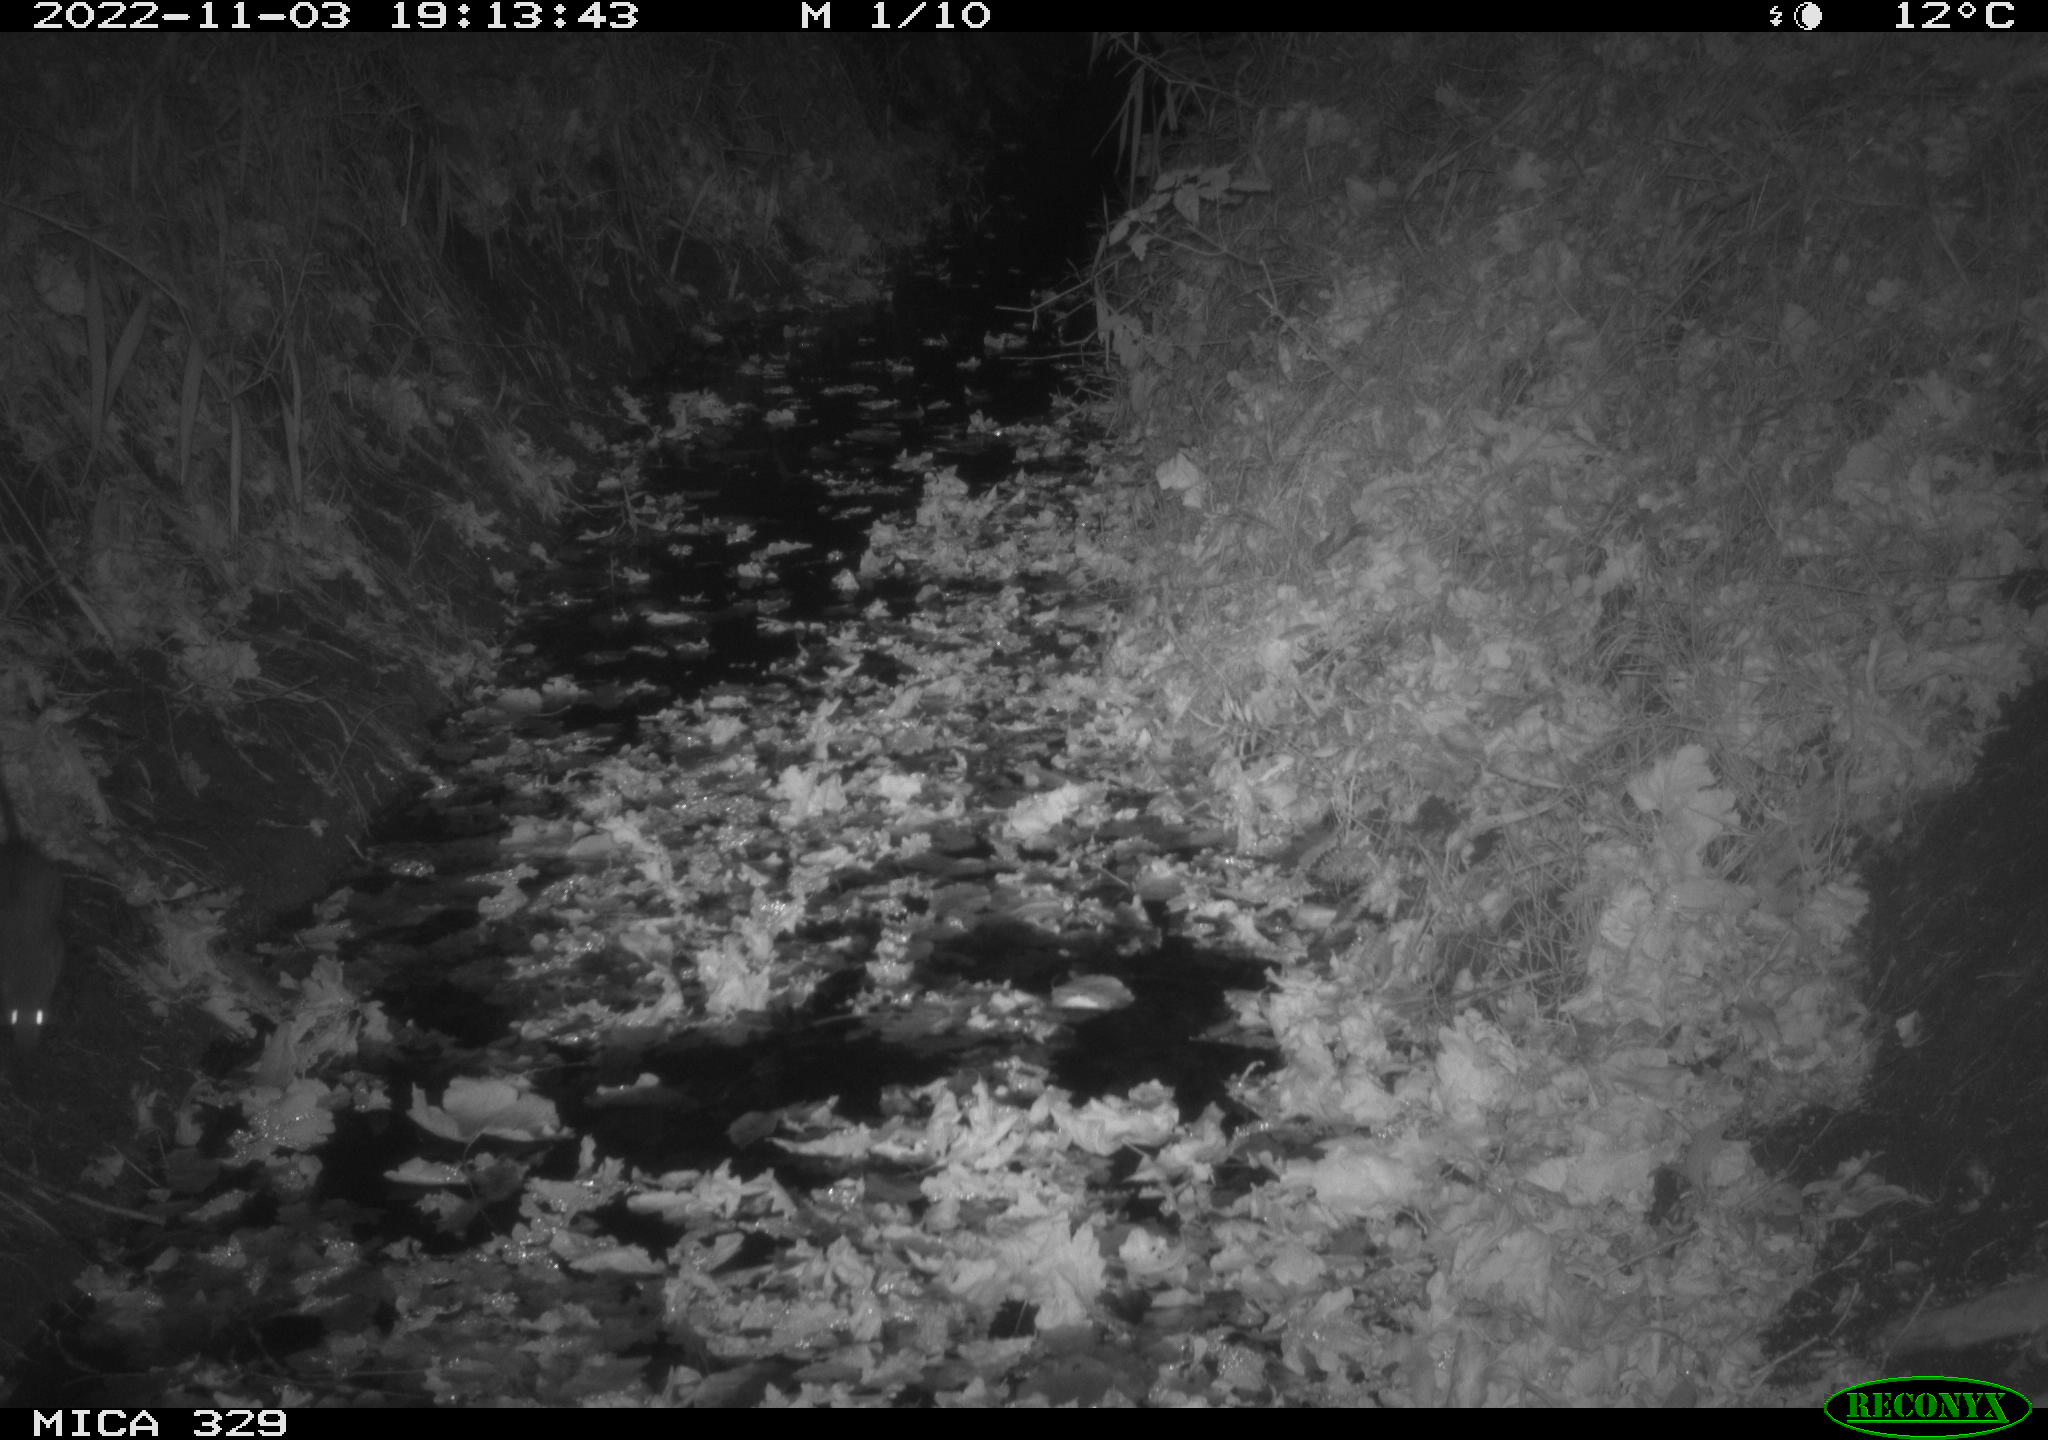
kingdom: Animalia
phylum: Chordata
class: Mammalia
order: Rodentia
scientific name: Rodentia
